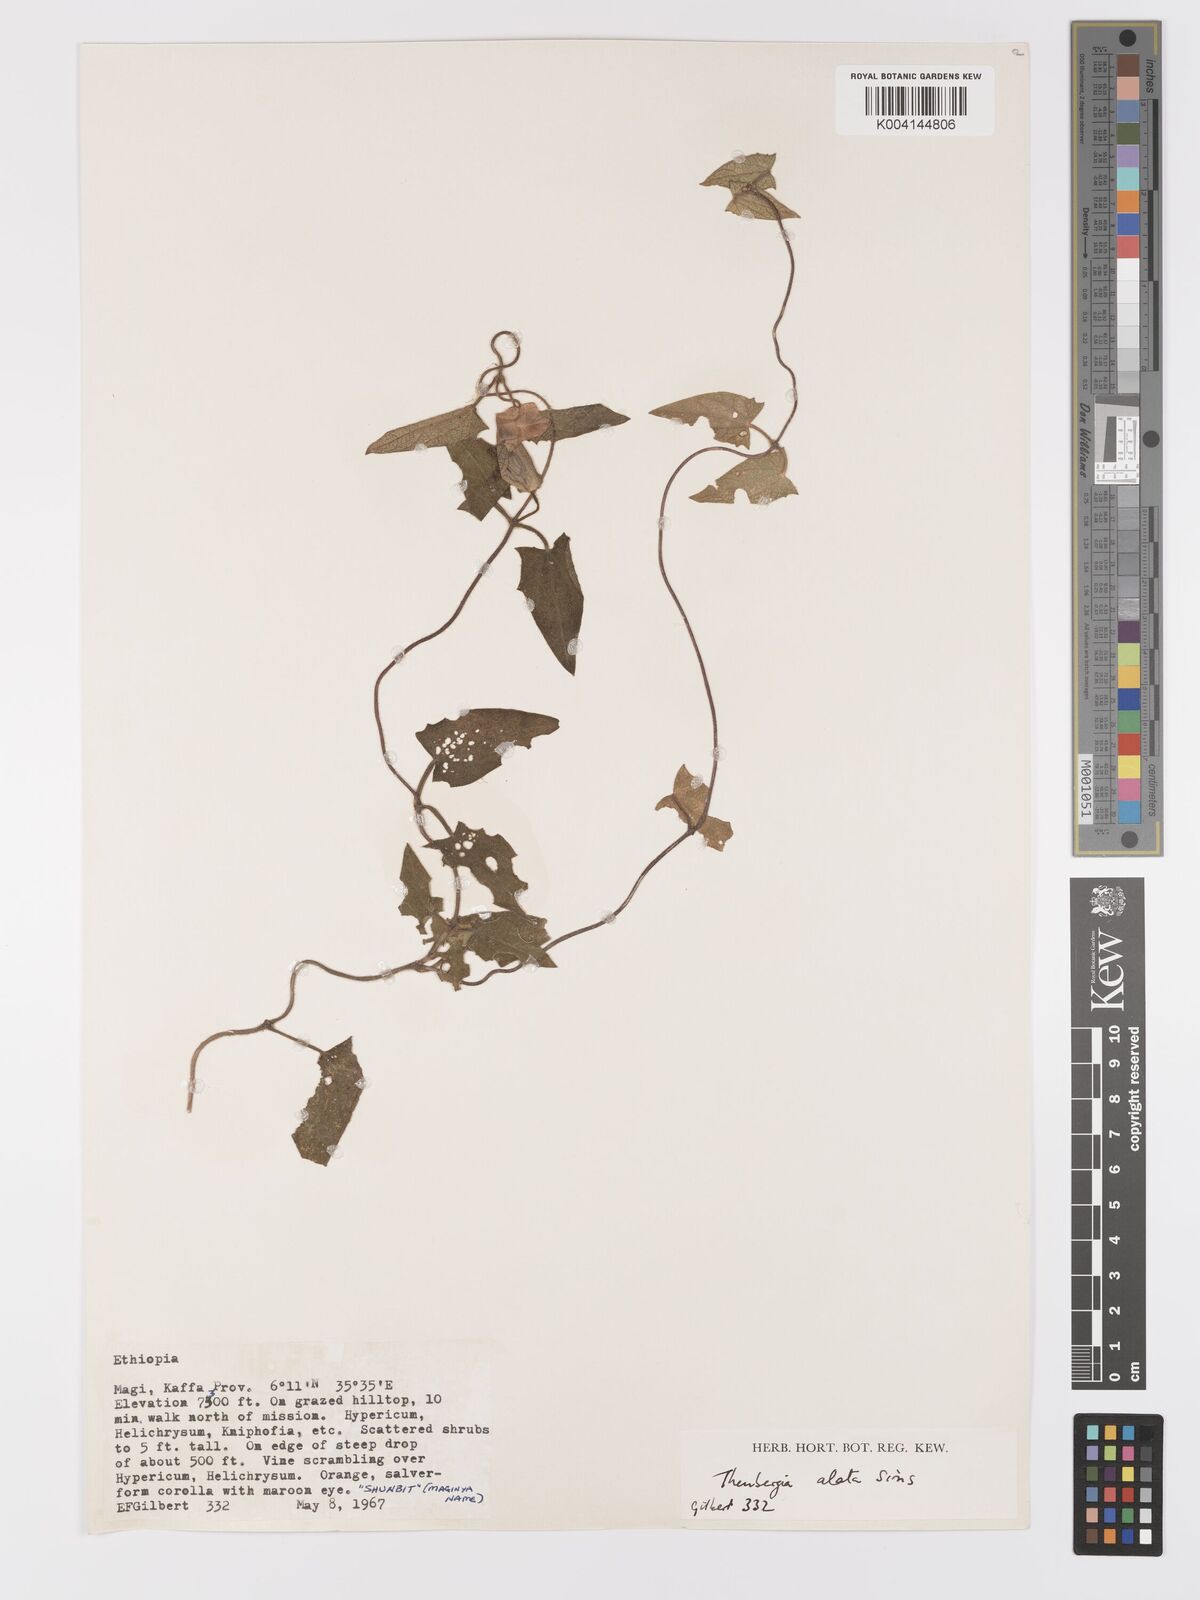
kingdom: Plantae
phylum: Tracheophyta
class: Magnoliopsida
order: Lamiales
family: Acanthaceae
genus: Thunbergia
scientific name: Thunbergia alata
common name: Blackeyed susan vine
